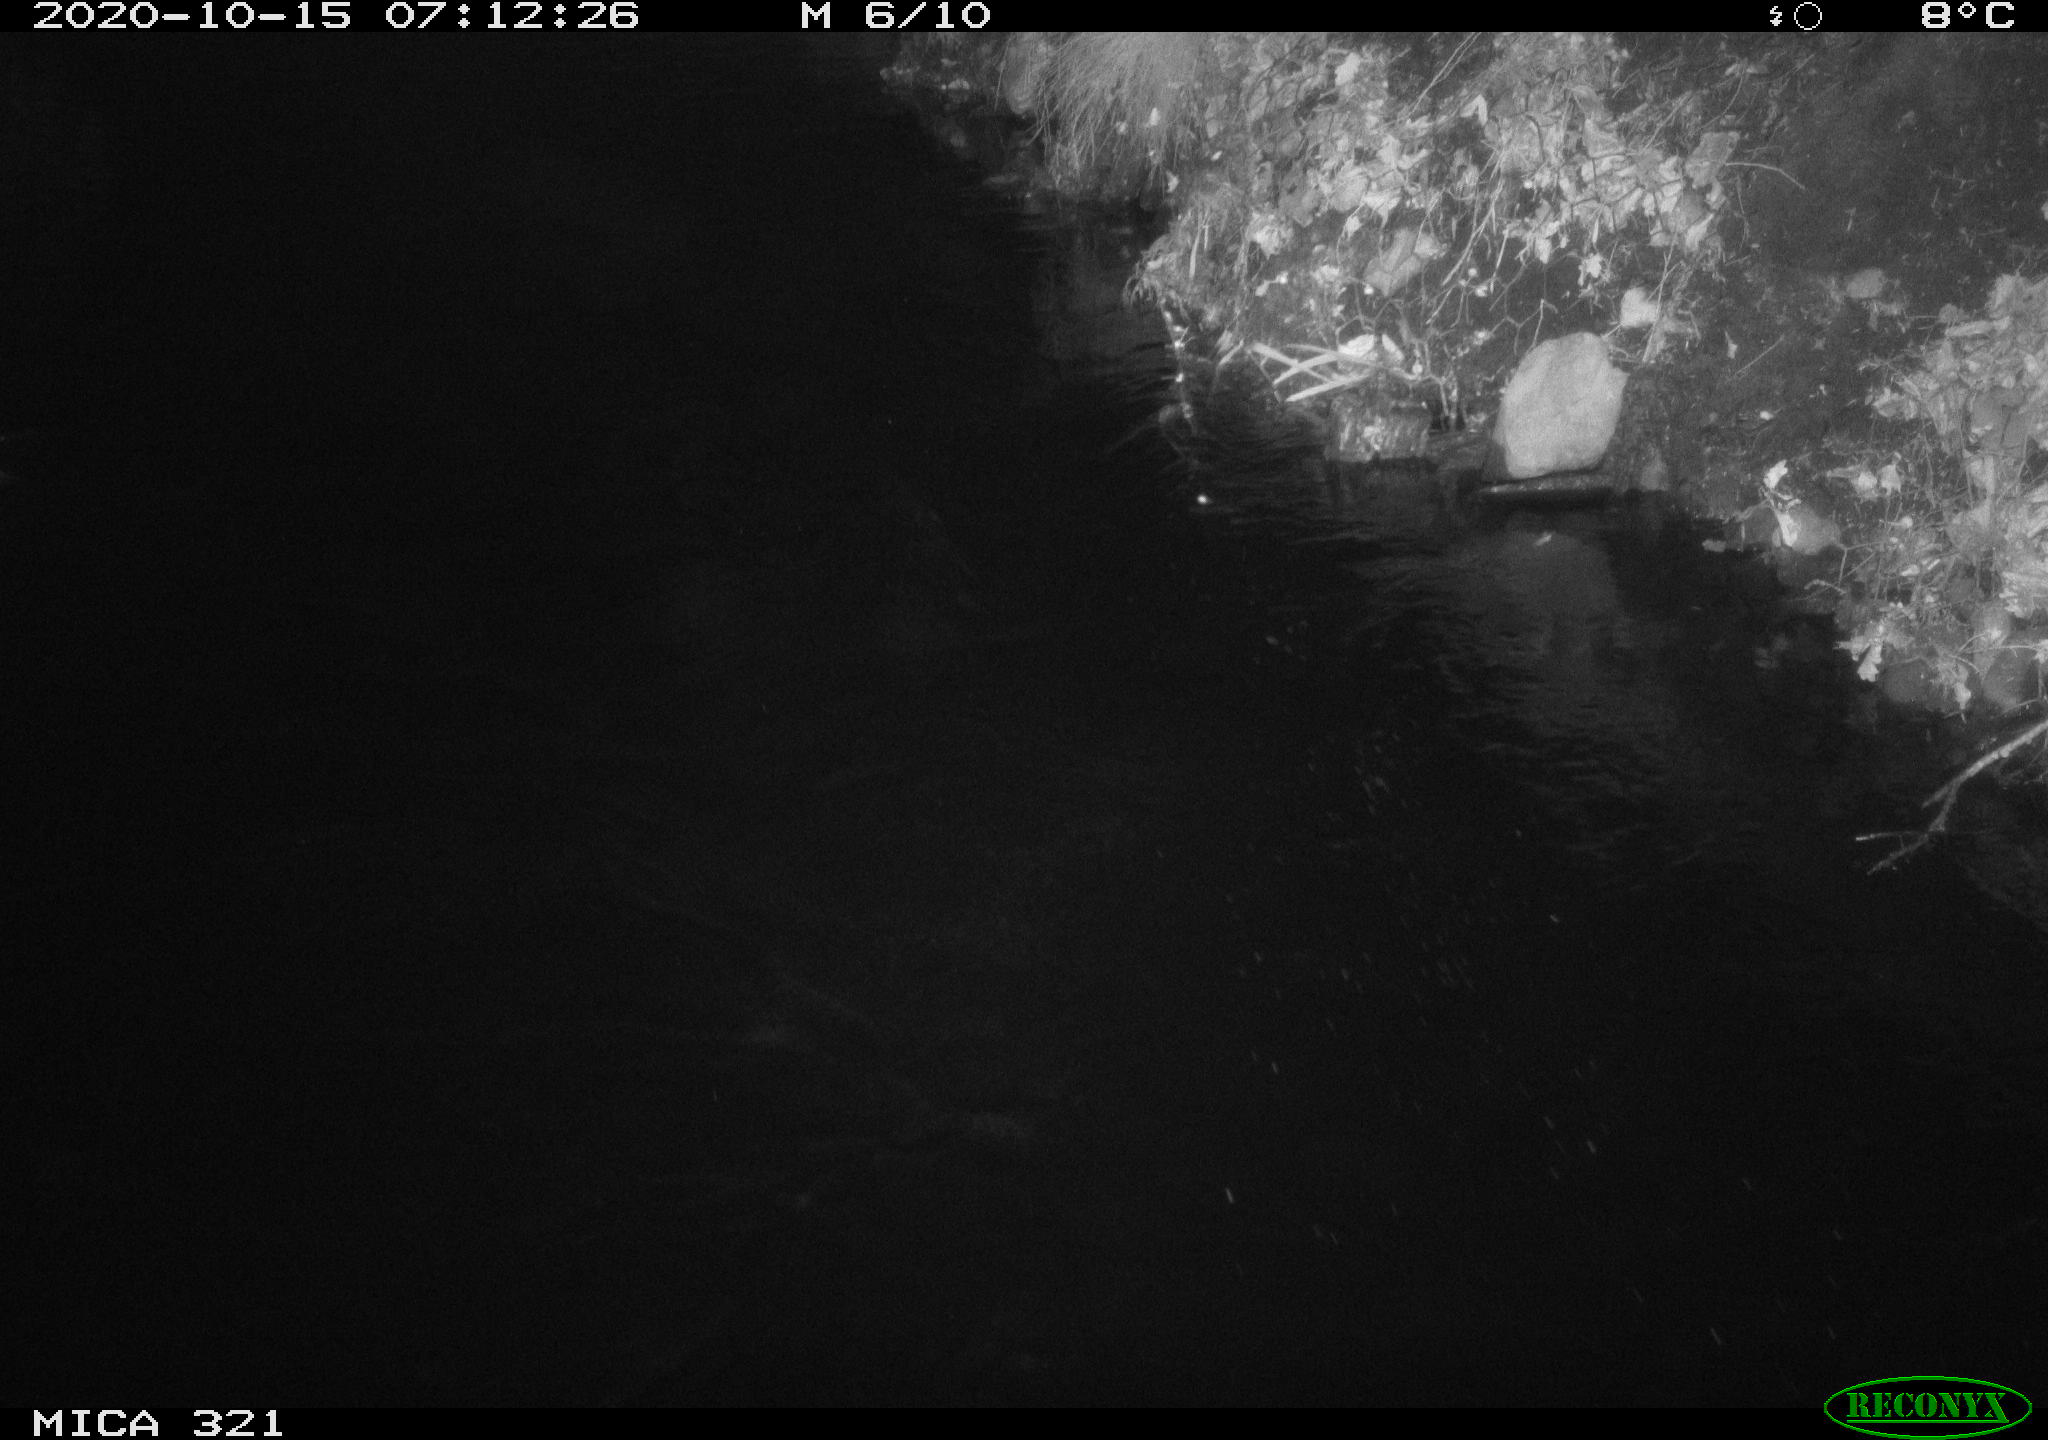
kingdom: Animalia
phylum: Chordata
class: Aves
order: Anseriformes
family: Anatidae
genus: Anas
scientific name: Anas platyrhynchos
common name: Mallard
